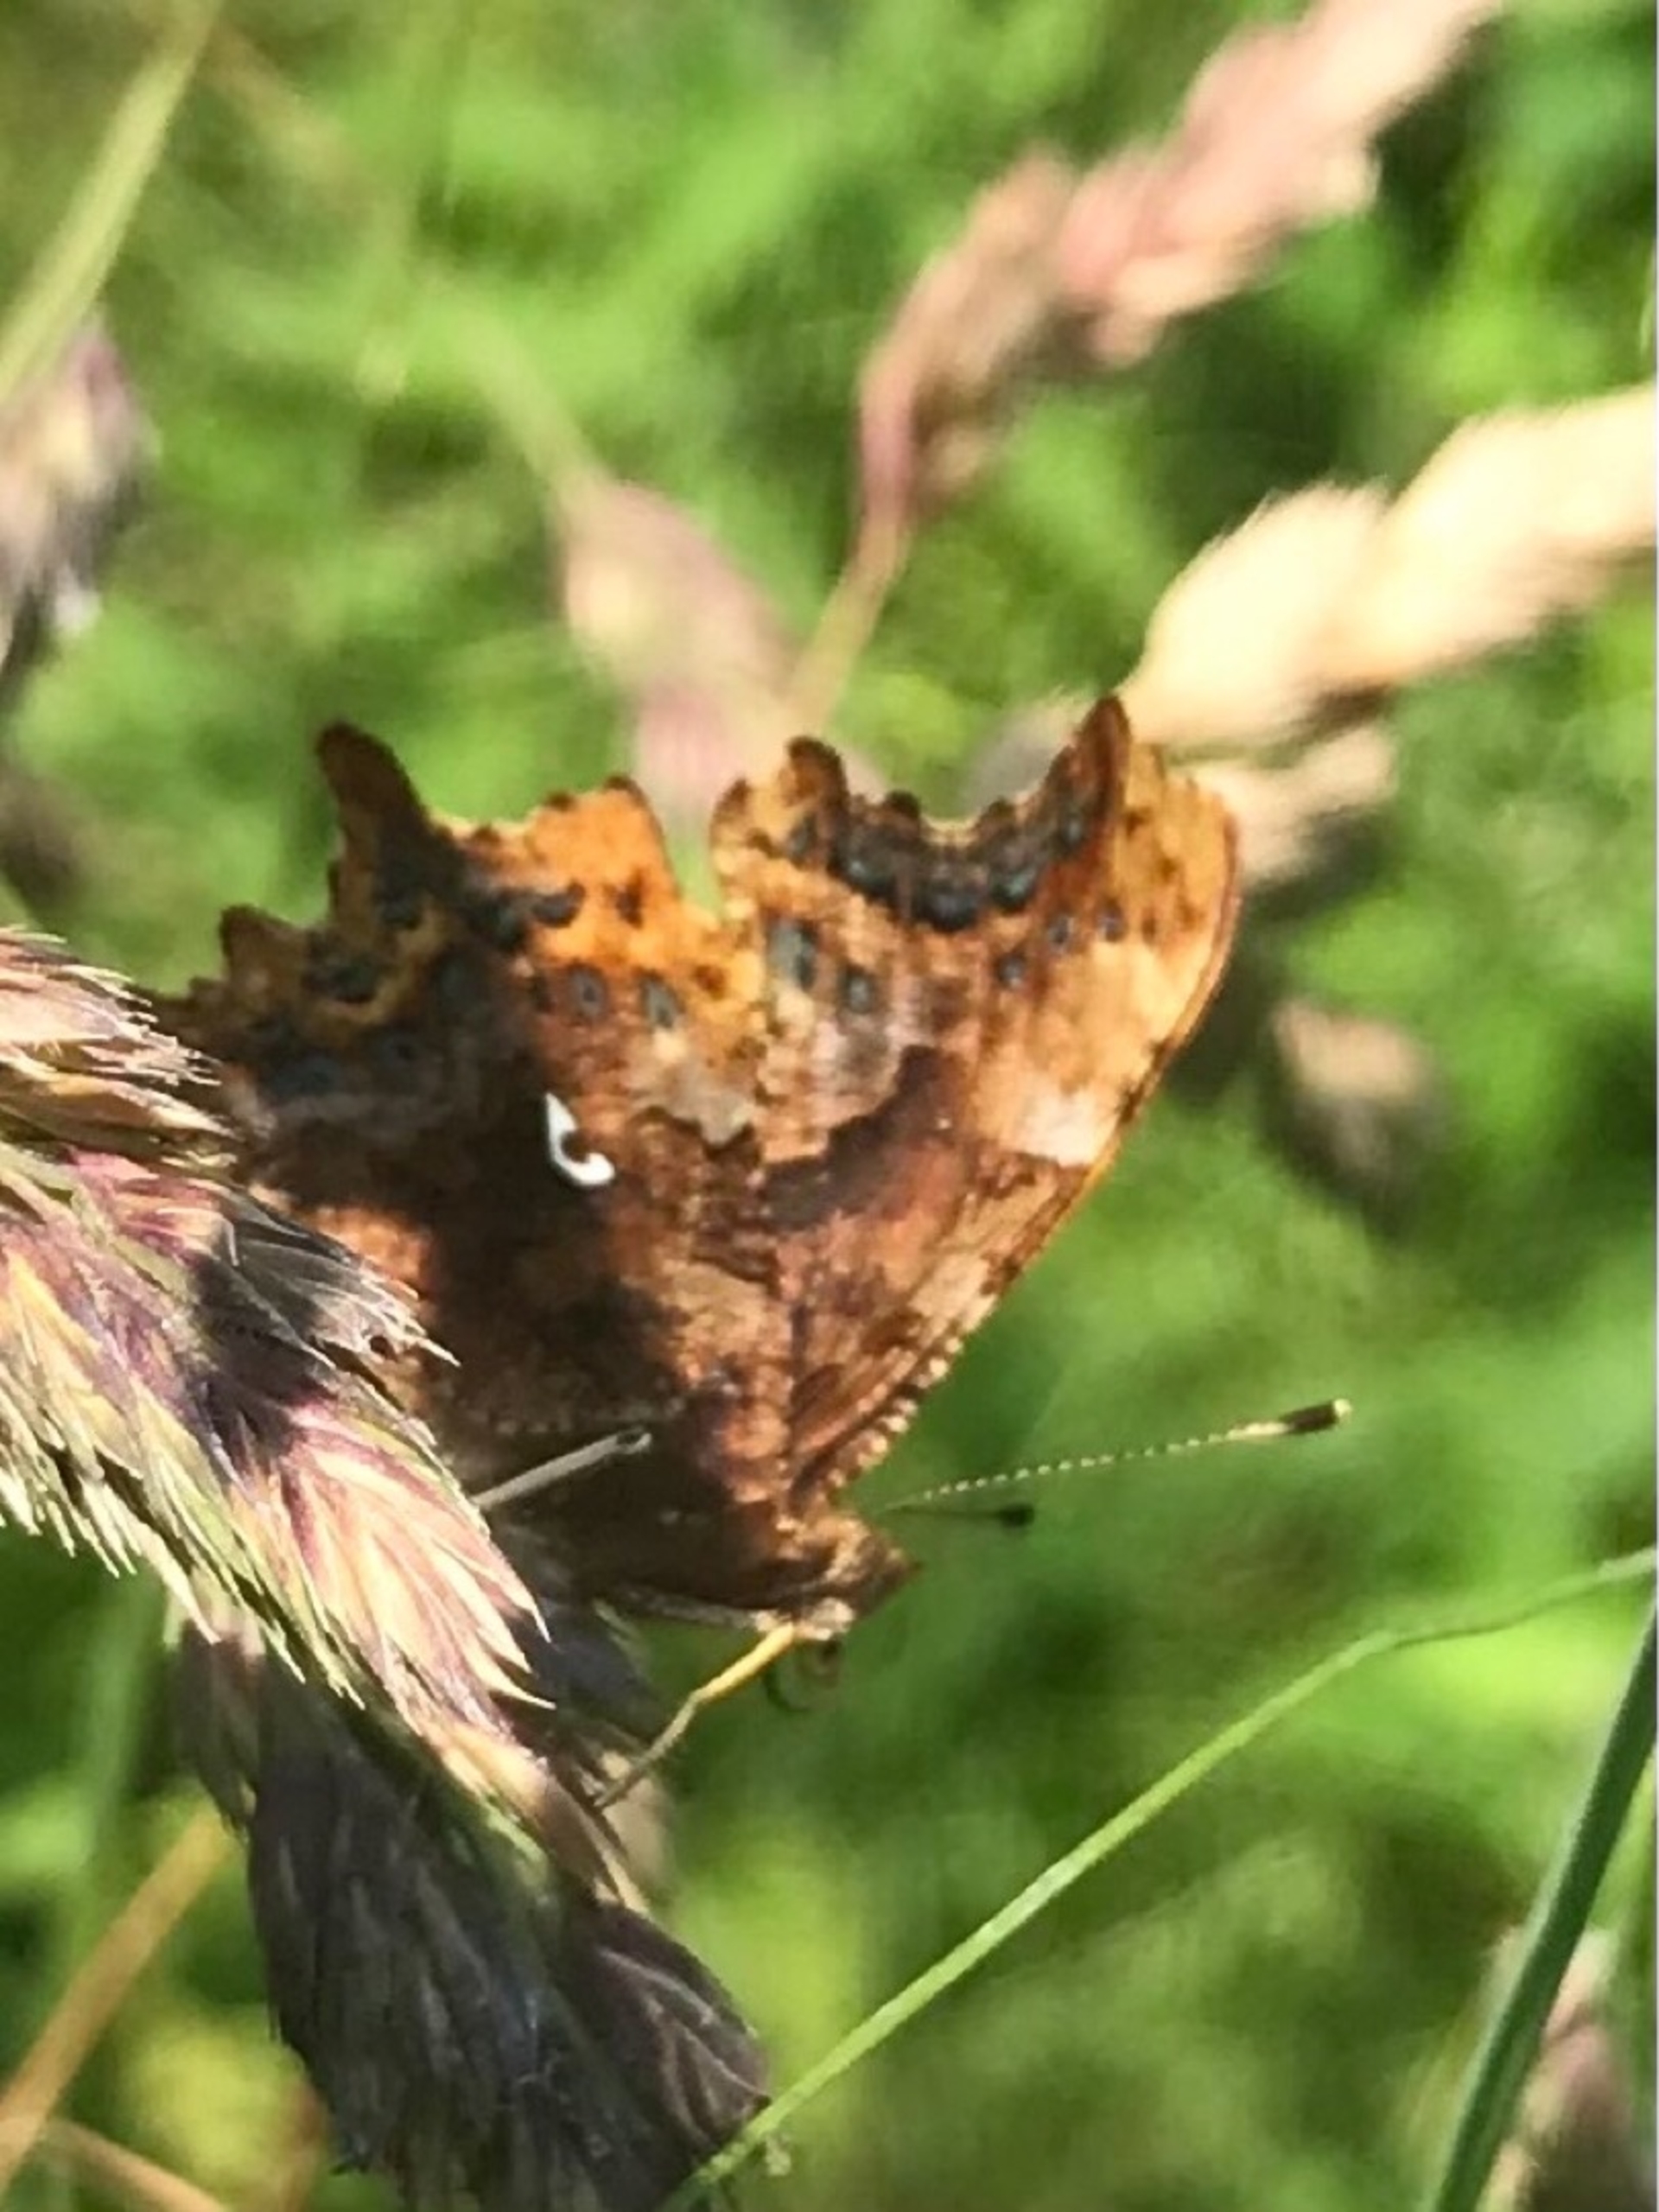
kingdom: Animalia
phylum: Arthropoda
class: Insecta
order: Lepidoptera
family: Nymphalidae
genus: Polygonia
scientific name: Polygonia c-album
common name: Det hvide C
